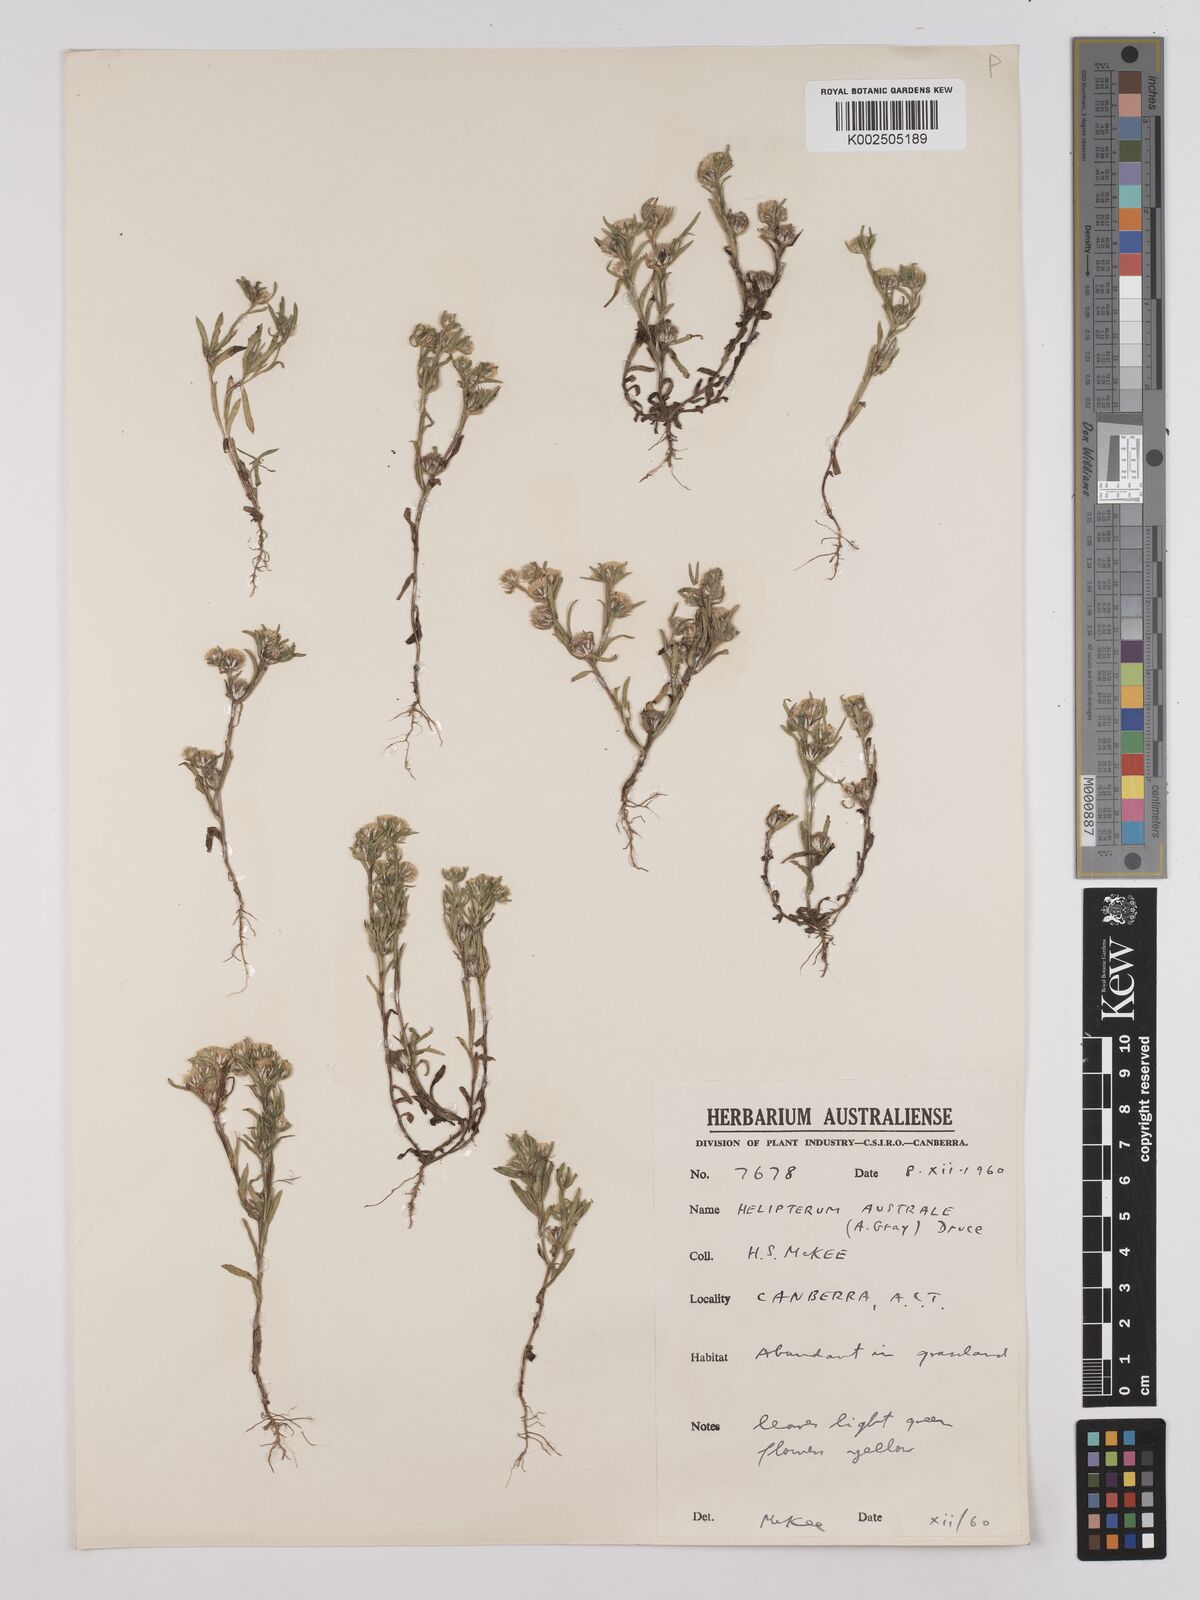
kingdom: Plantae
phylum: Tracheophyta
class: Magnoliopsida
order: Asterales
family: Asteraceae
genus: Triptilodiscus
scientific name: Triptilodiscus pygmaeus
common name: Common sunray
